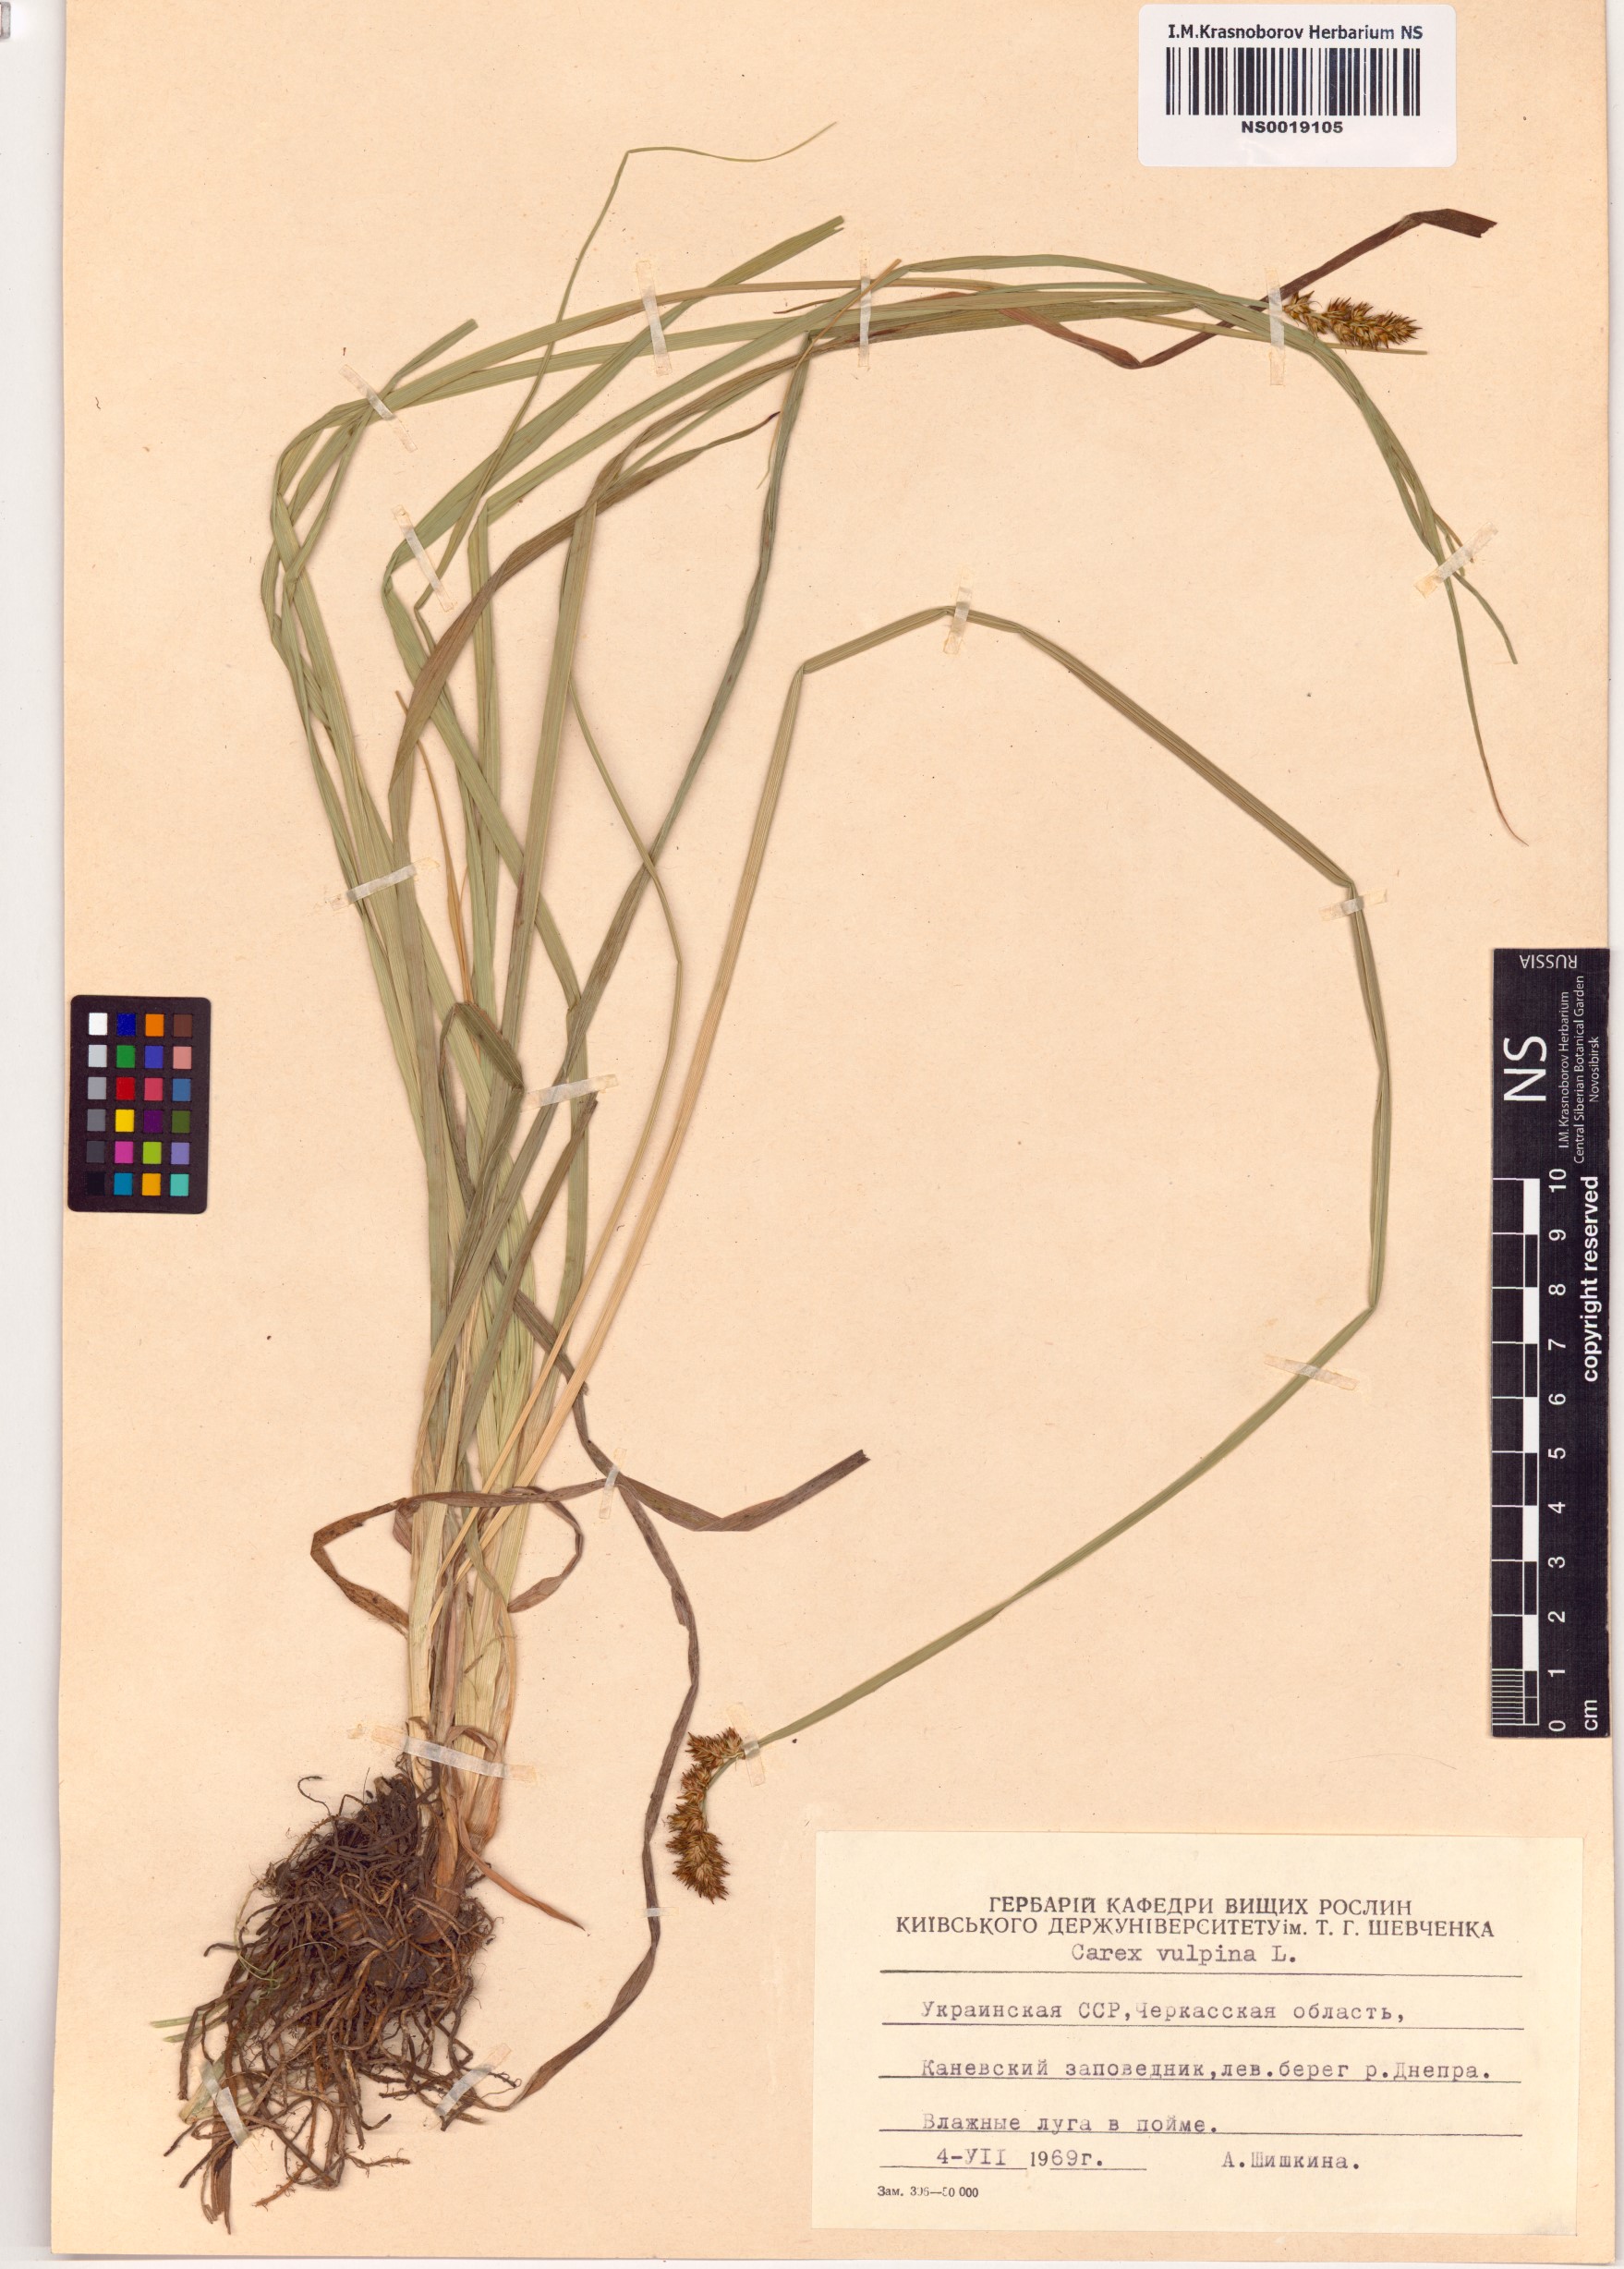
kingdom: Plantae
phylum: Tracheophyta
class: Liliopsida
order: Poales
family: Cyperaceae
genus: Carex
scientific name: Carex vulpina
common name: True fox-sedge
